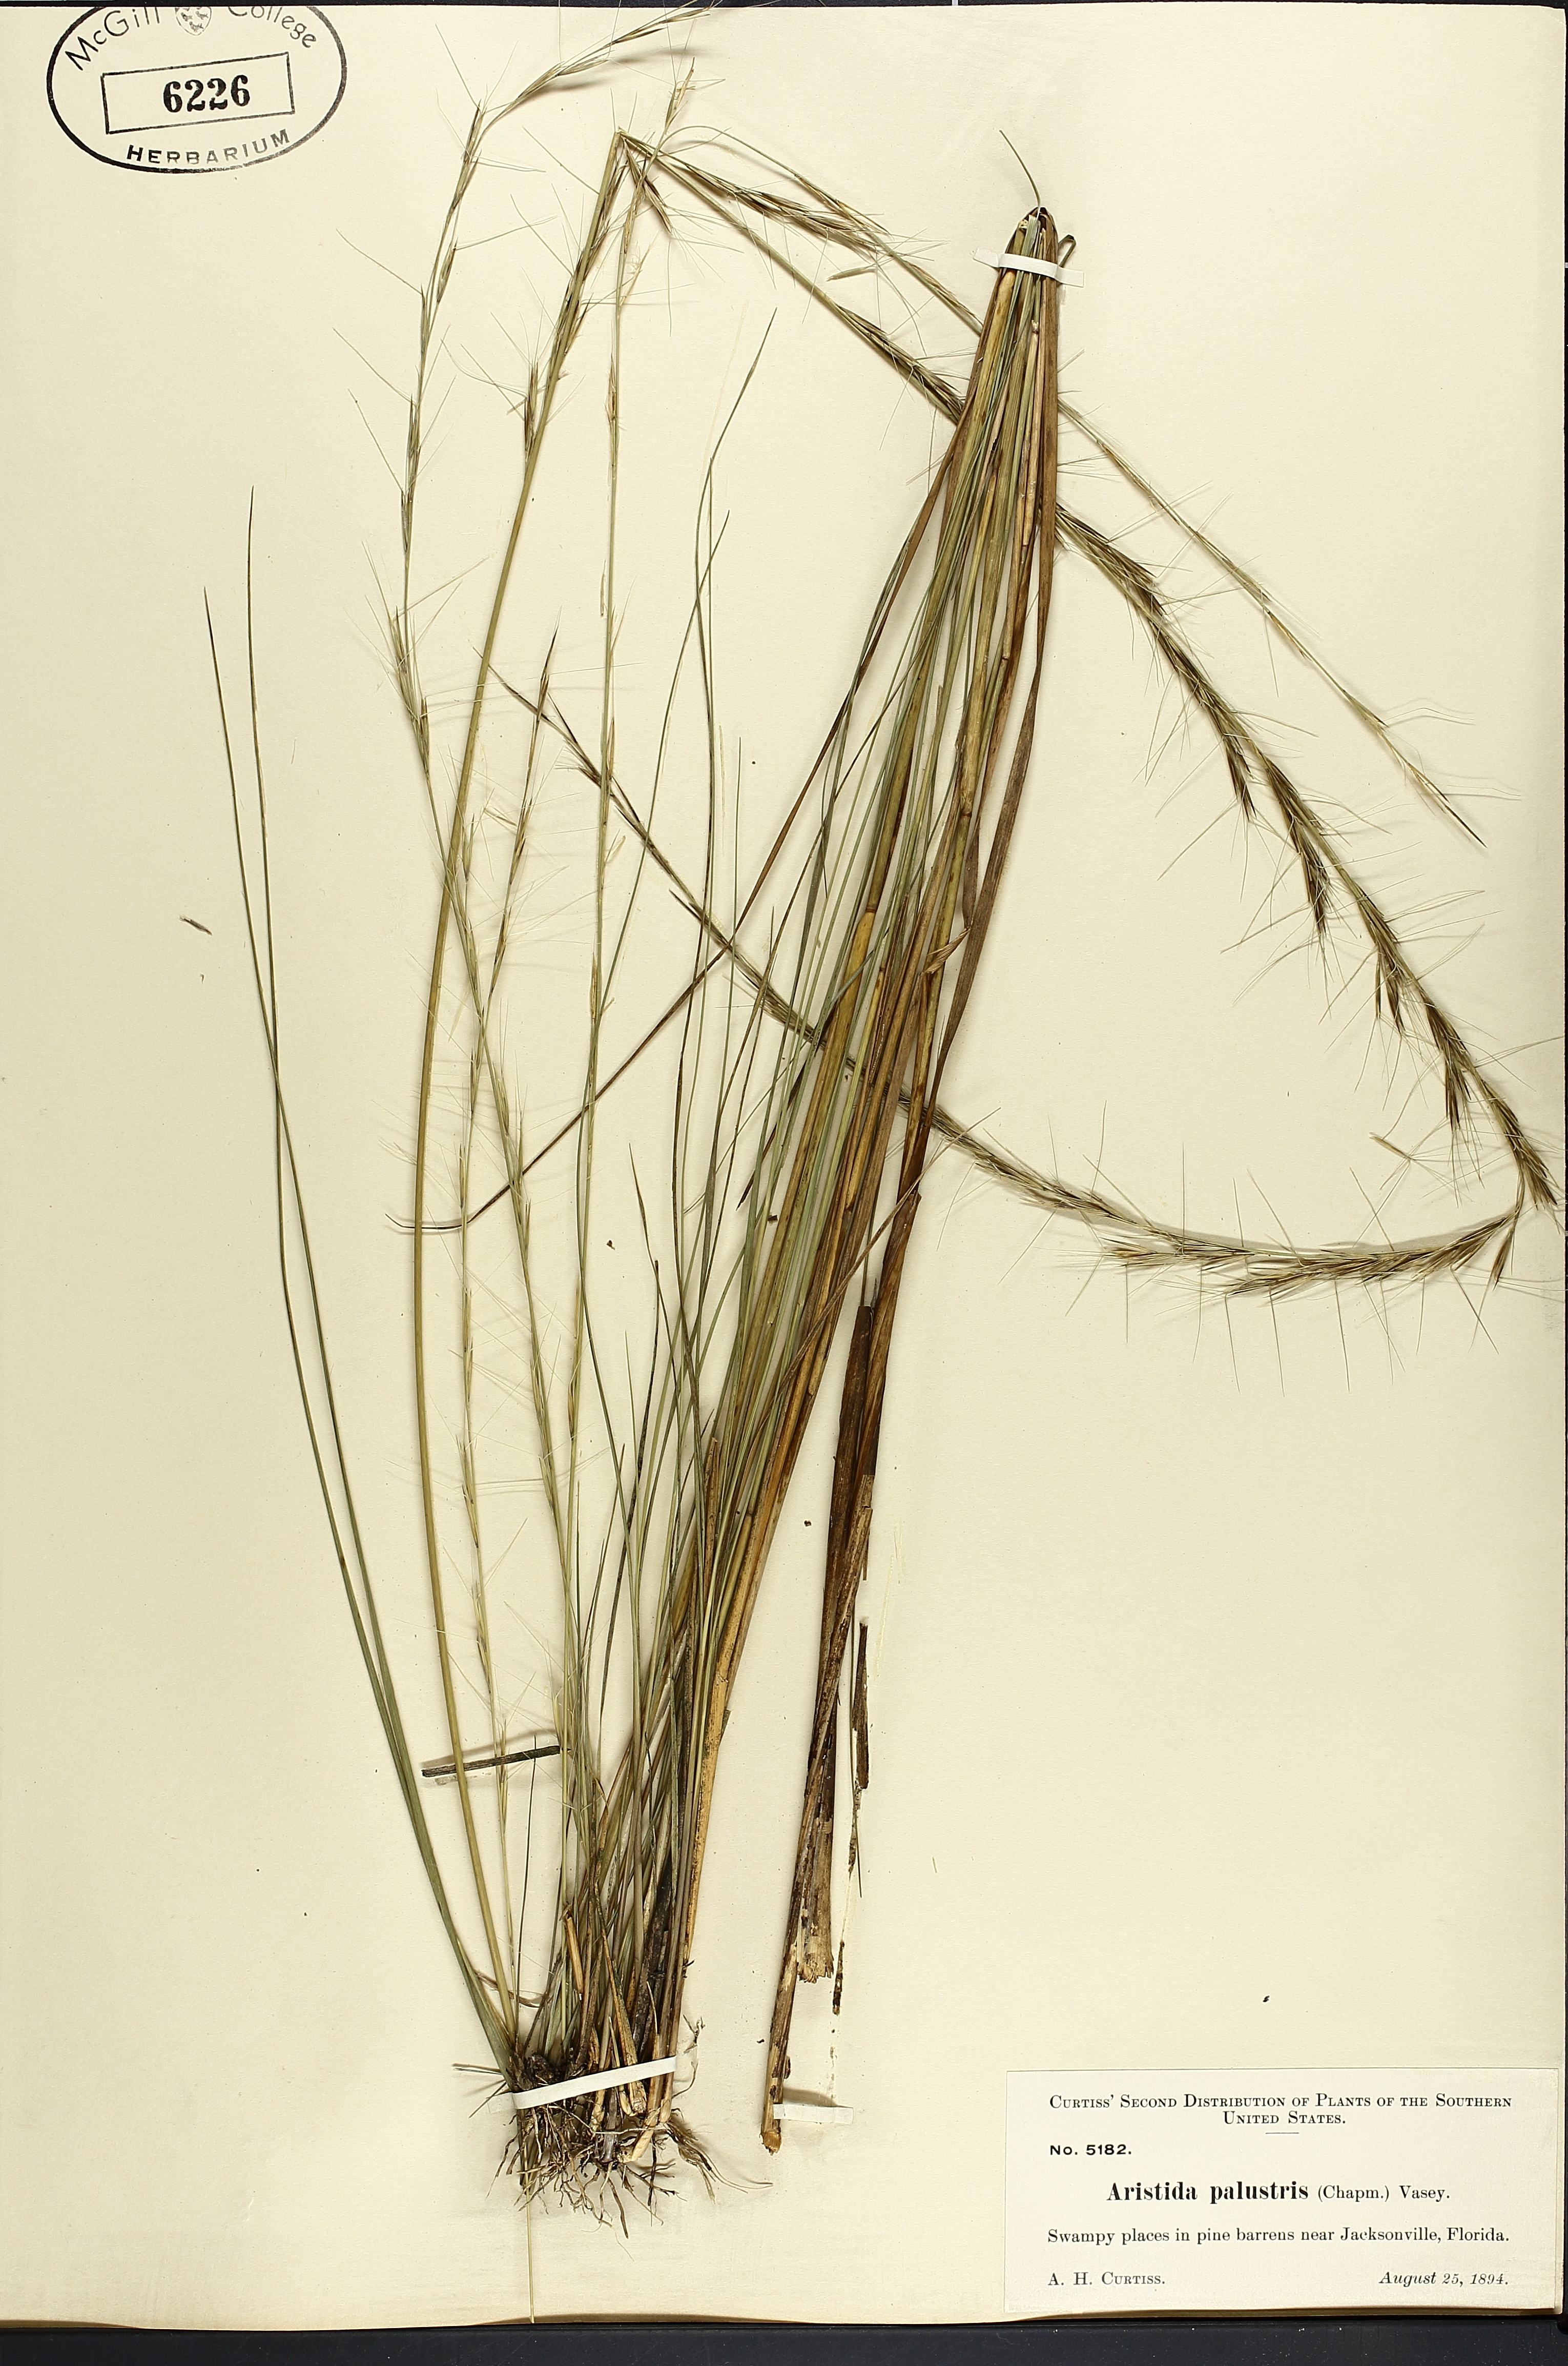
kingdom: Plantae
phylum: Tracheophyta
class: Liliopsida
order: Poales
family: Poaceae
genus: Aristida
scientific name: Aristida palustris
